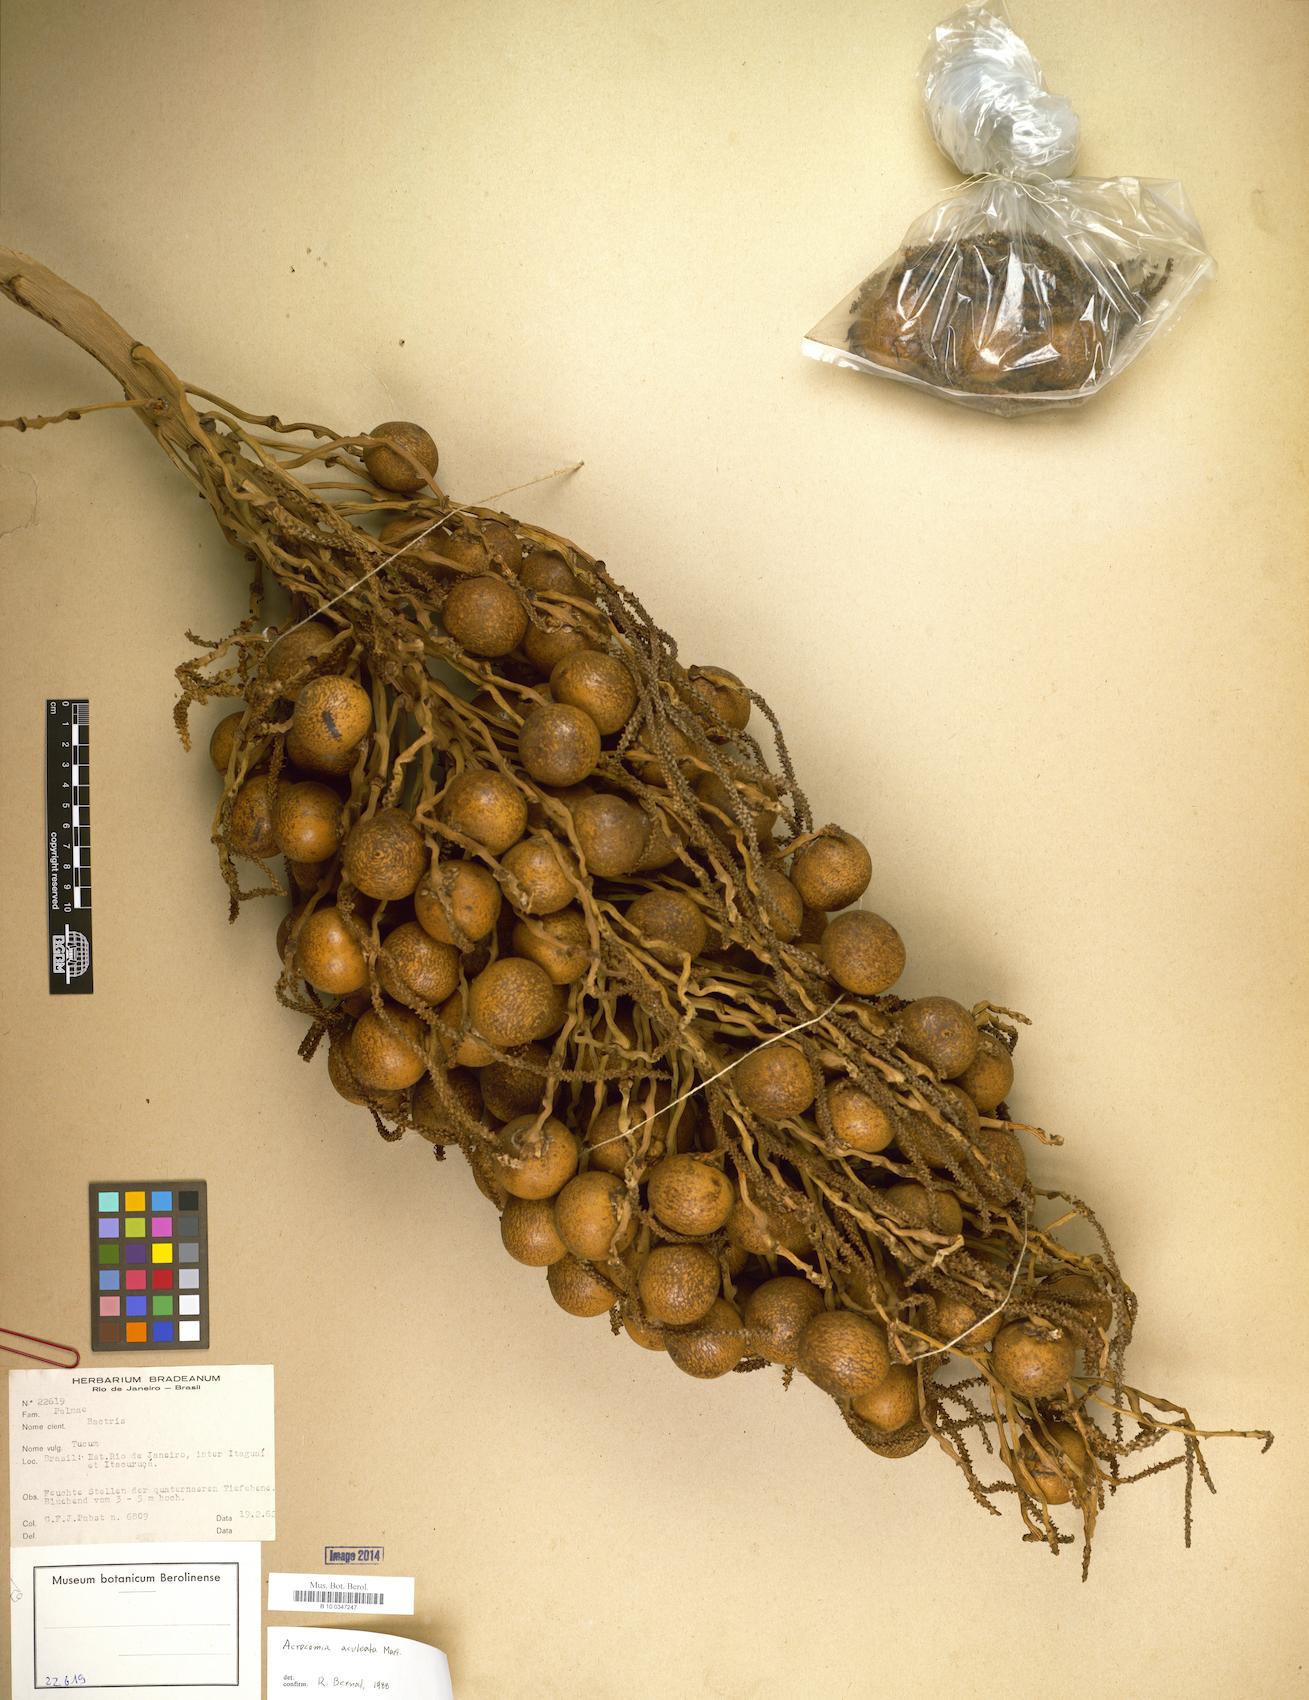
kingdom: Plantae
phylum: Tracheophyta
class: Liliopsida
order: Arecales
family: Arecaceae
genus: Acrocomia
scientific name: Acrocomia aculeata
